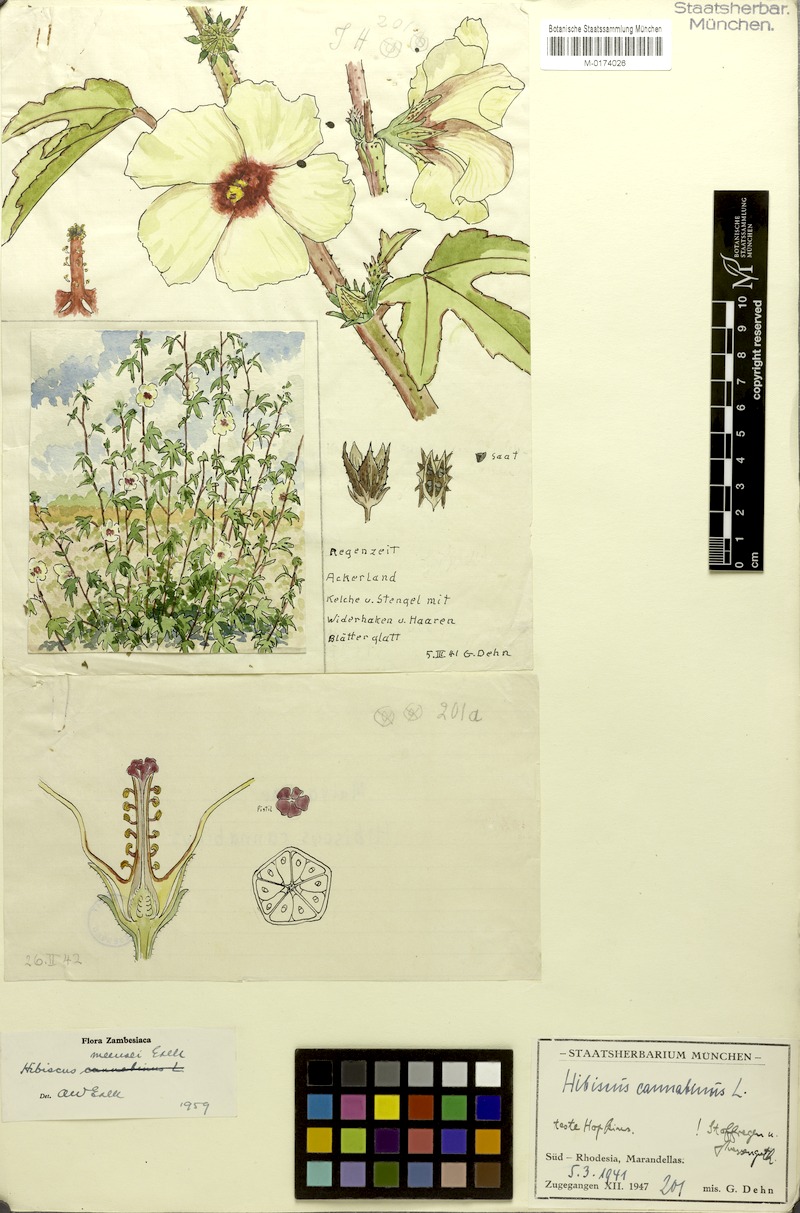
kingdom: Plantae
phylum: Tracheophyta
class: Magnoliopsida
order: Malvales
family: Malvaceae
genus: Hibiscus
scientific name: Hibiscus nigricaulis
